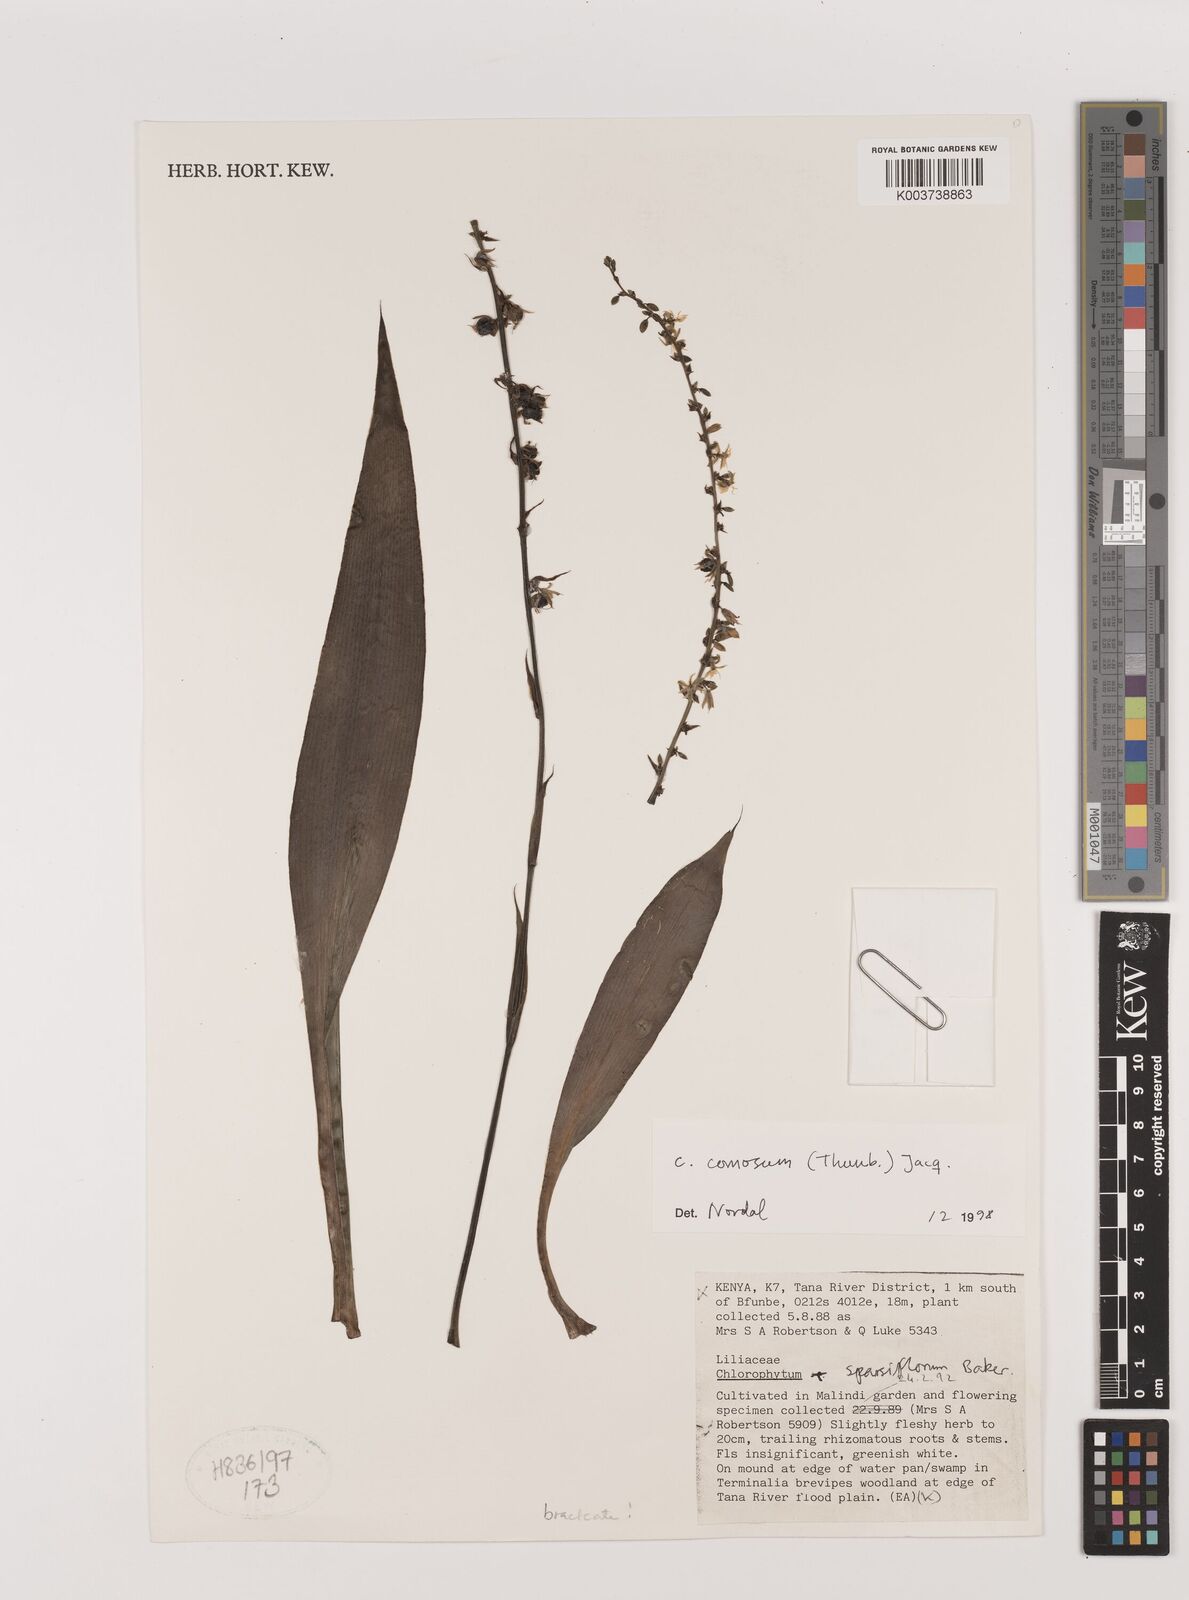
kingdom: Plantae
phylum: Tracheophyta
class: Liliopsida
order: Asparagales
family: Asparagaceae
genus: Chlorophytum
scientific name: Chlorophytum comosum
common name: Spider plant
